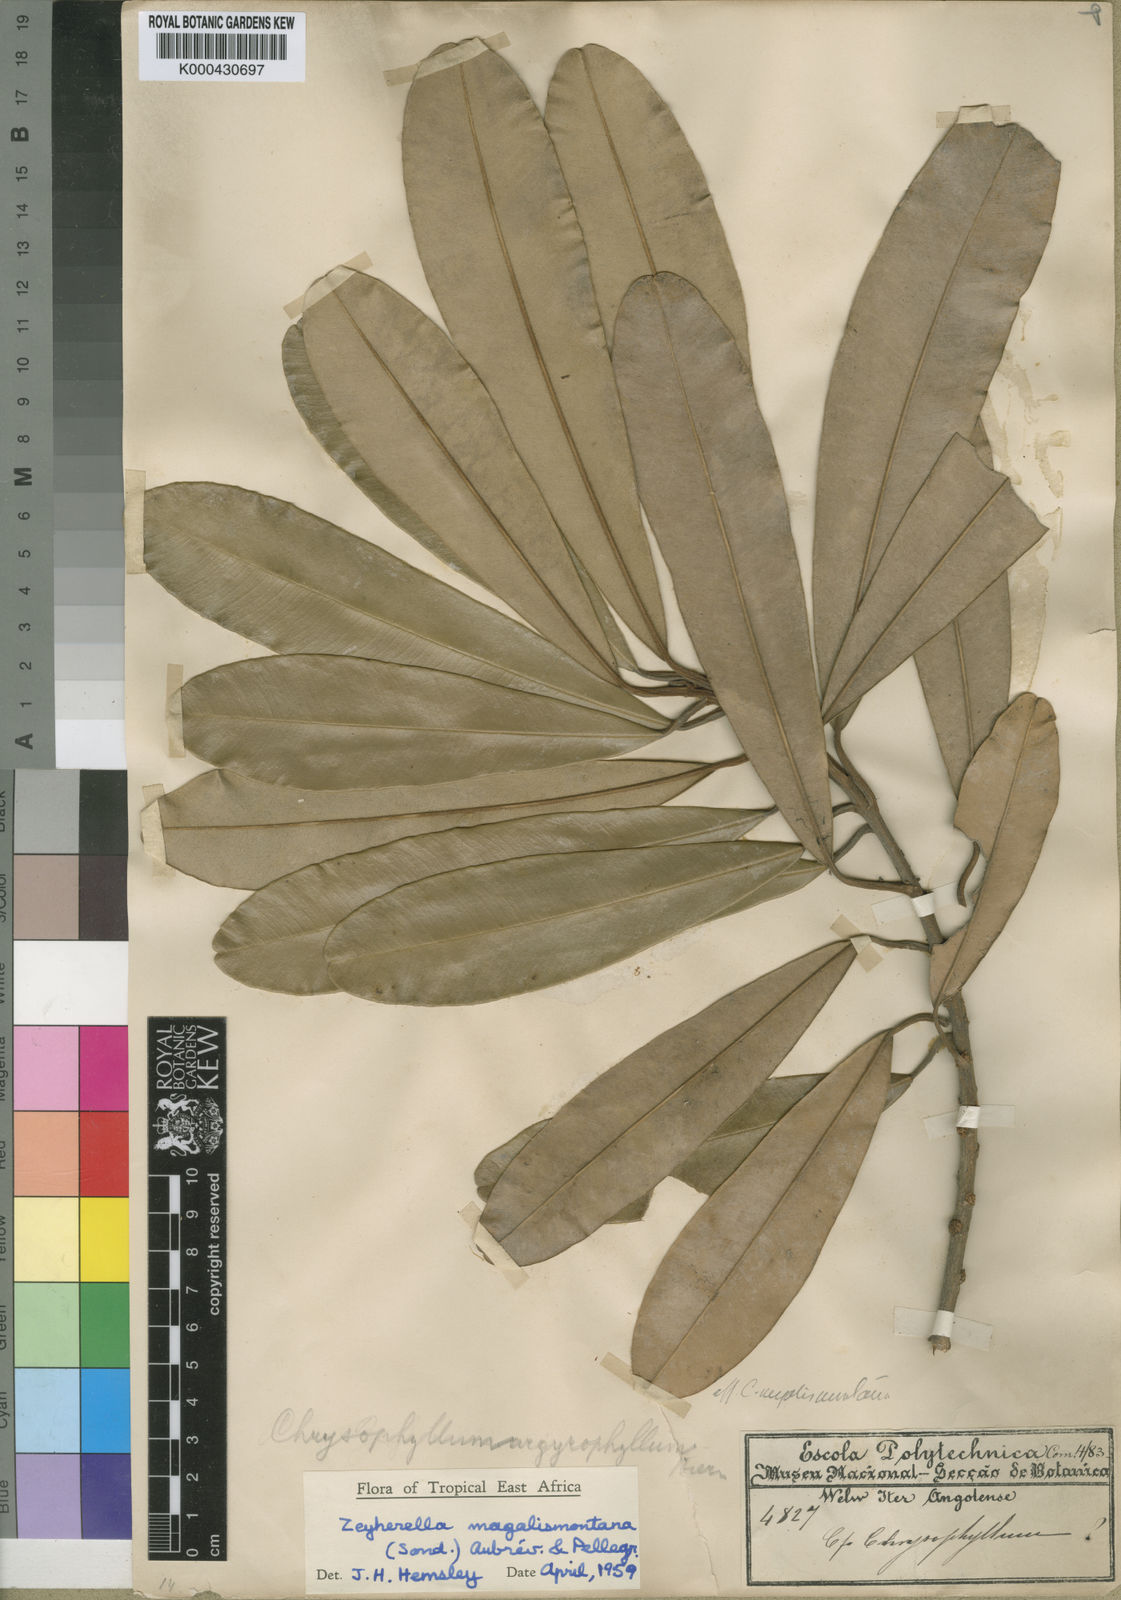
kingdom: Plantae
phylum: Tracheophyta
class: Magnoliopsida
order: Ericales
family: Sapotaceae
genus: Englerophytum
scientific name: Englerophytum magalismontanum
